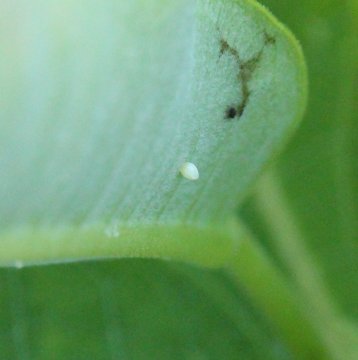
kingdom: Animalia
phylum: Arthropoda
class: Insecta
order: Lepidoptera
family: Nymphalidae
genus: Danaus
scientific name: Danaus plexippus
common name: Monarch
